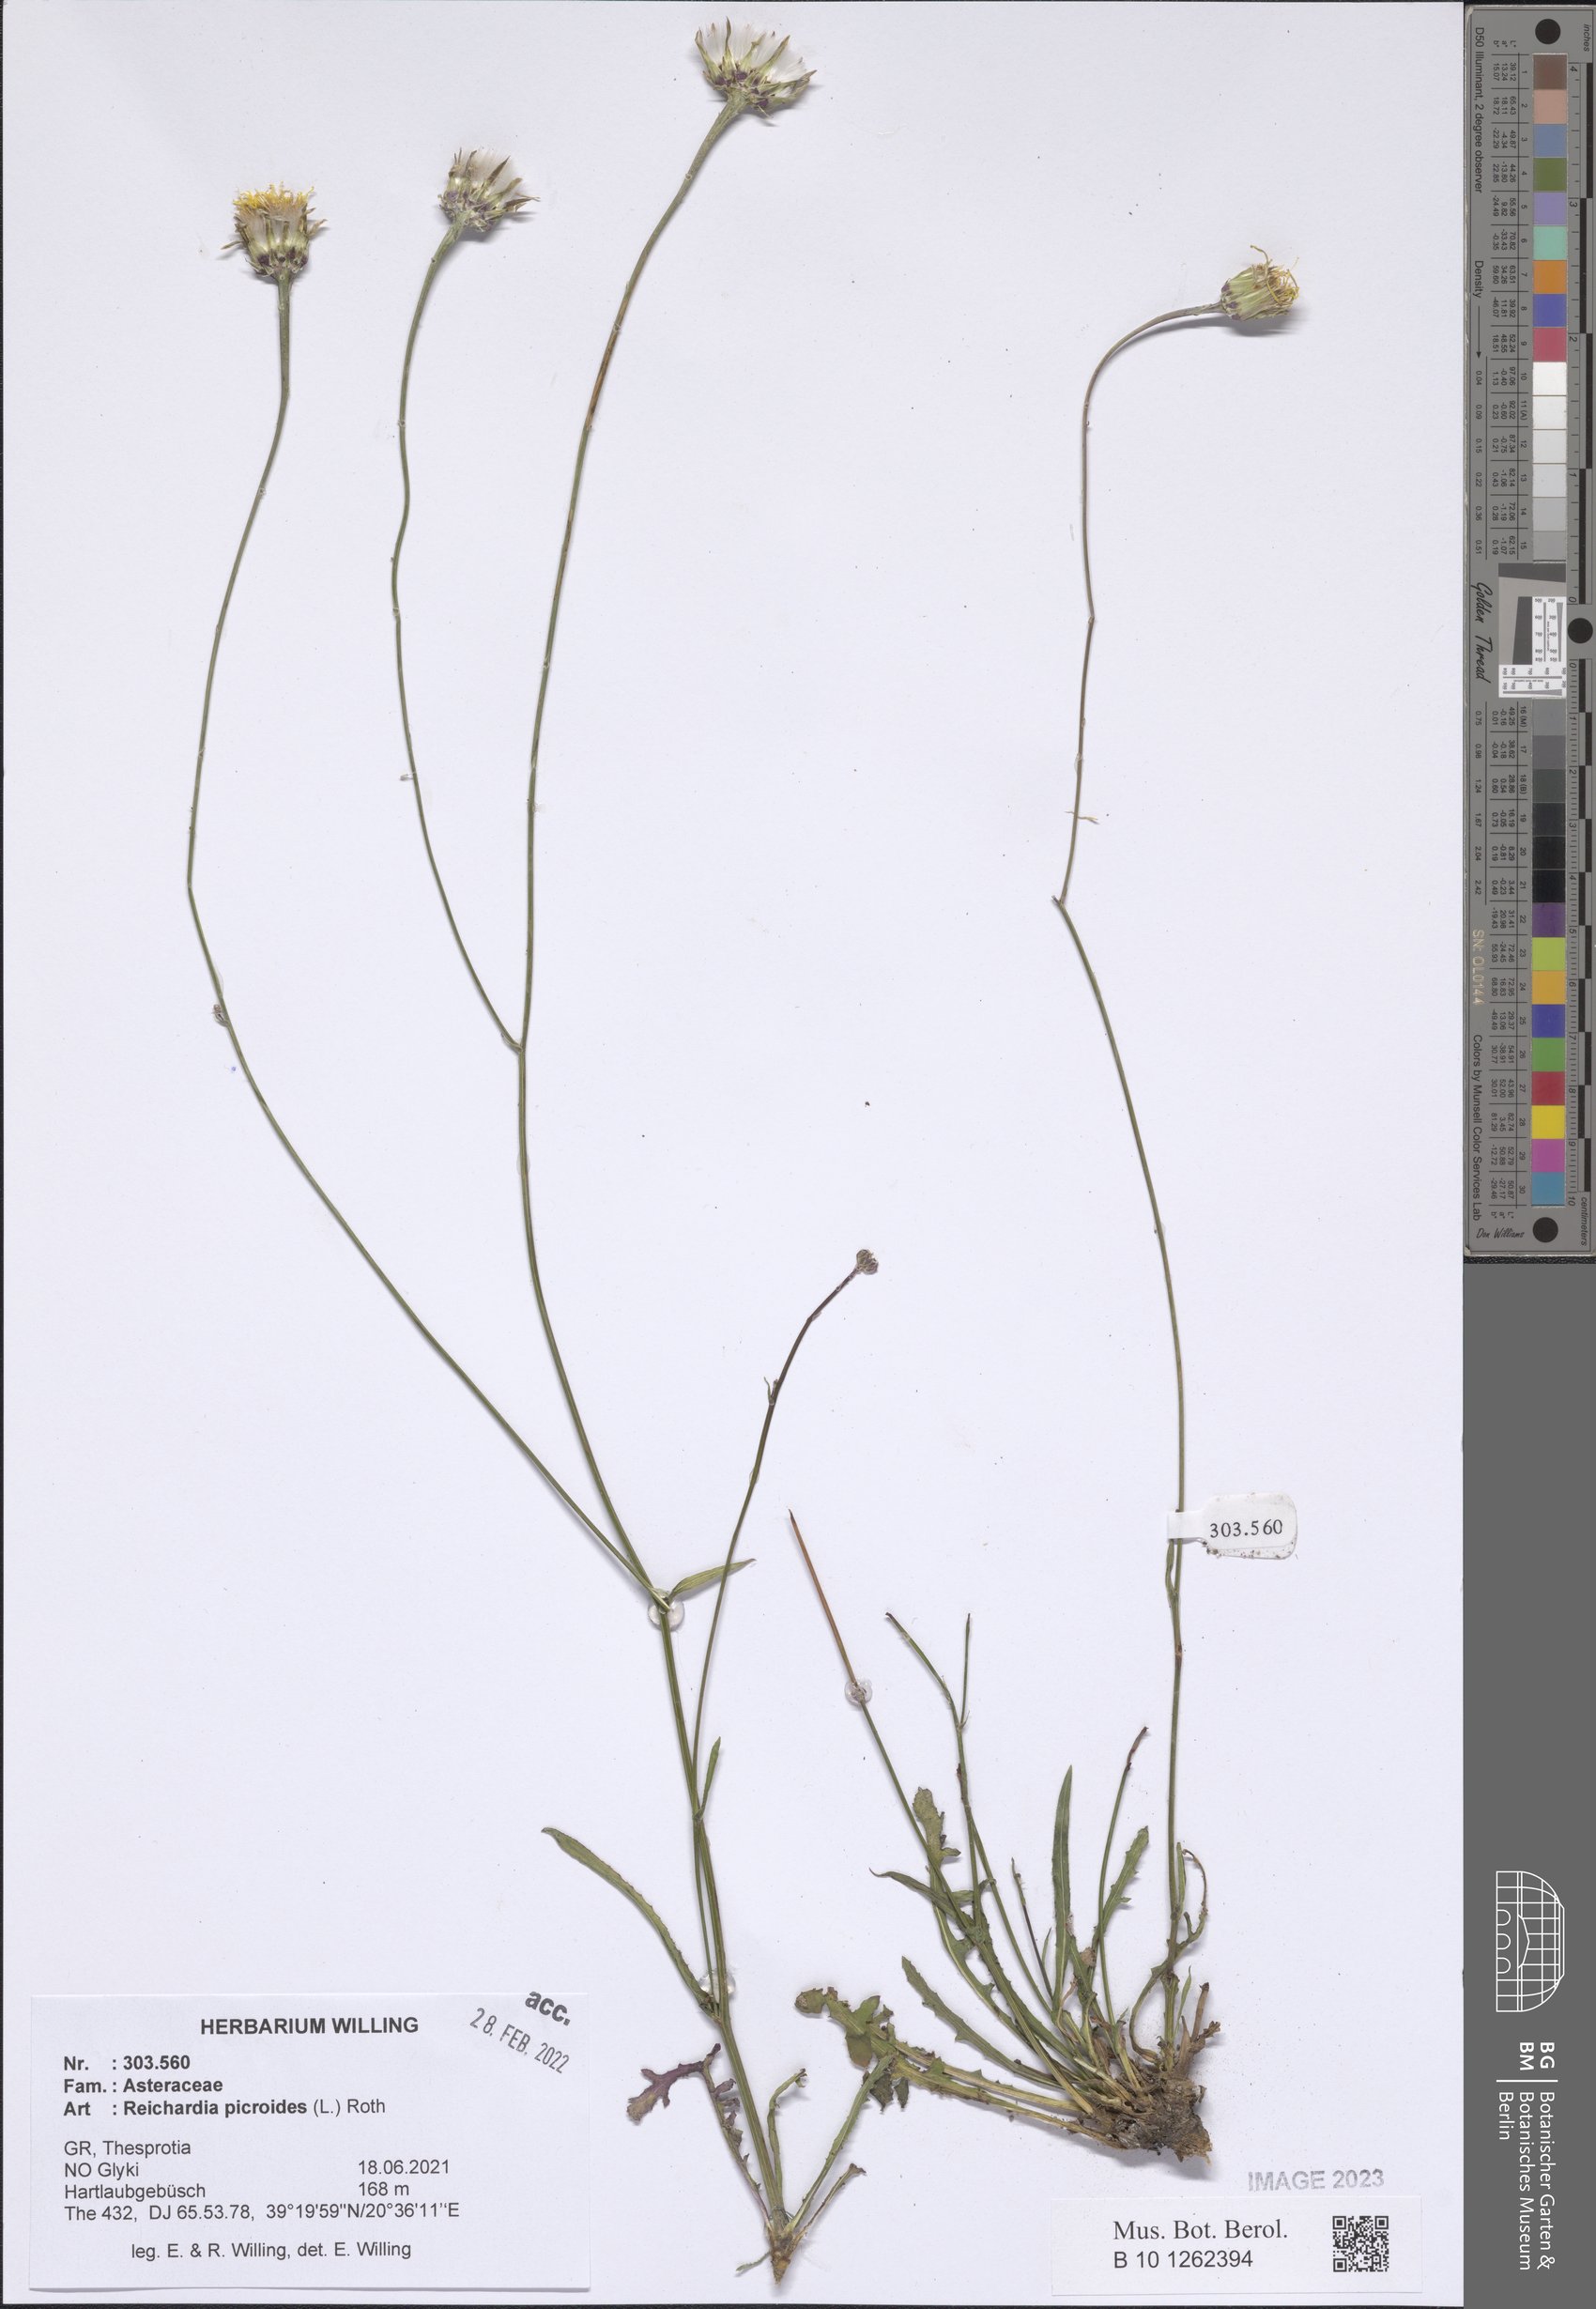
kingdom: Plantae
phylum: Tracheophyta
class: Magnoliopsida
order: Asterales
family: Asteraceae
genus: Reichardia
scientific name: Reichardia picroides
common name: Common brighteyes
